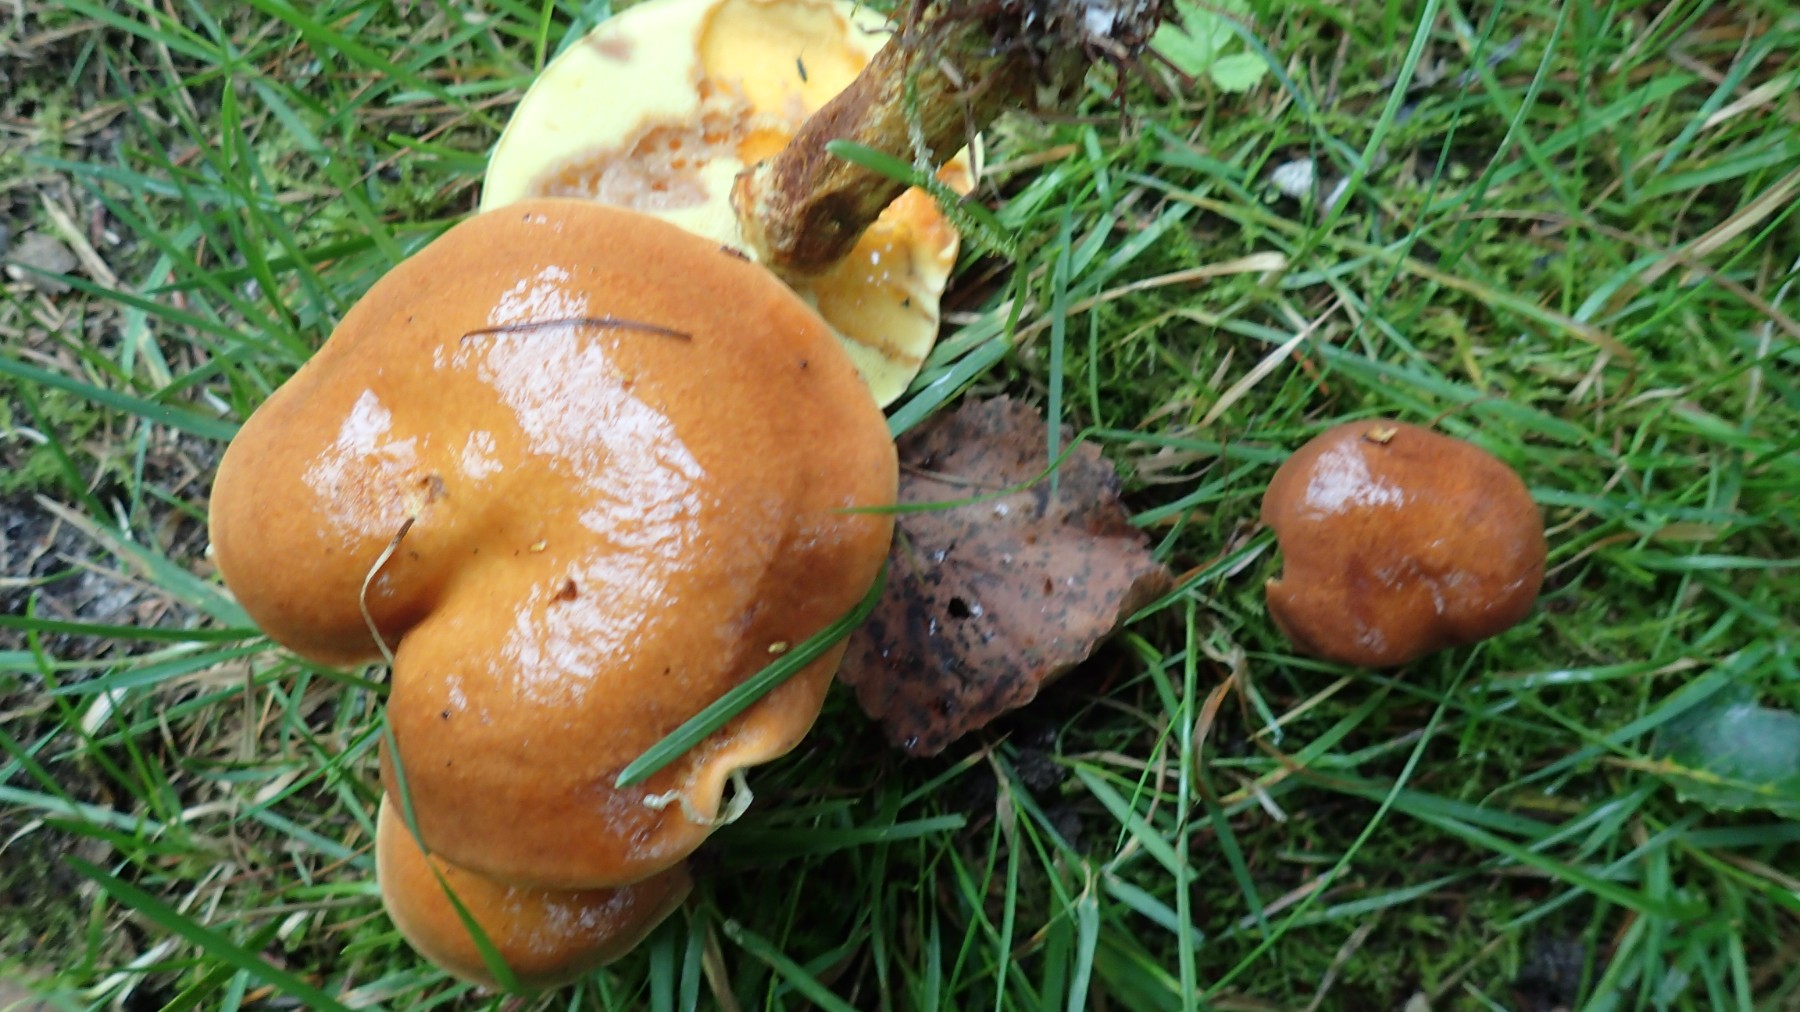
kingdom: Fungi
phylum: Basidiomycota
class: Agaricomycetes
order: Boletales
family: Suillaceae
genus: Suillus
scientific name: Suillus grevillei
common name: lærke-slimrørhat
